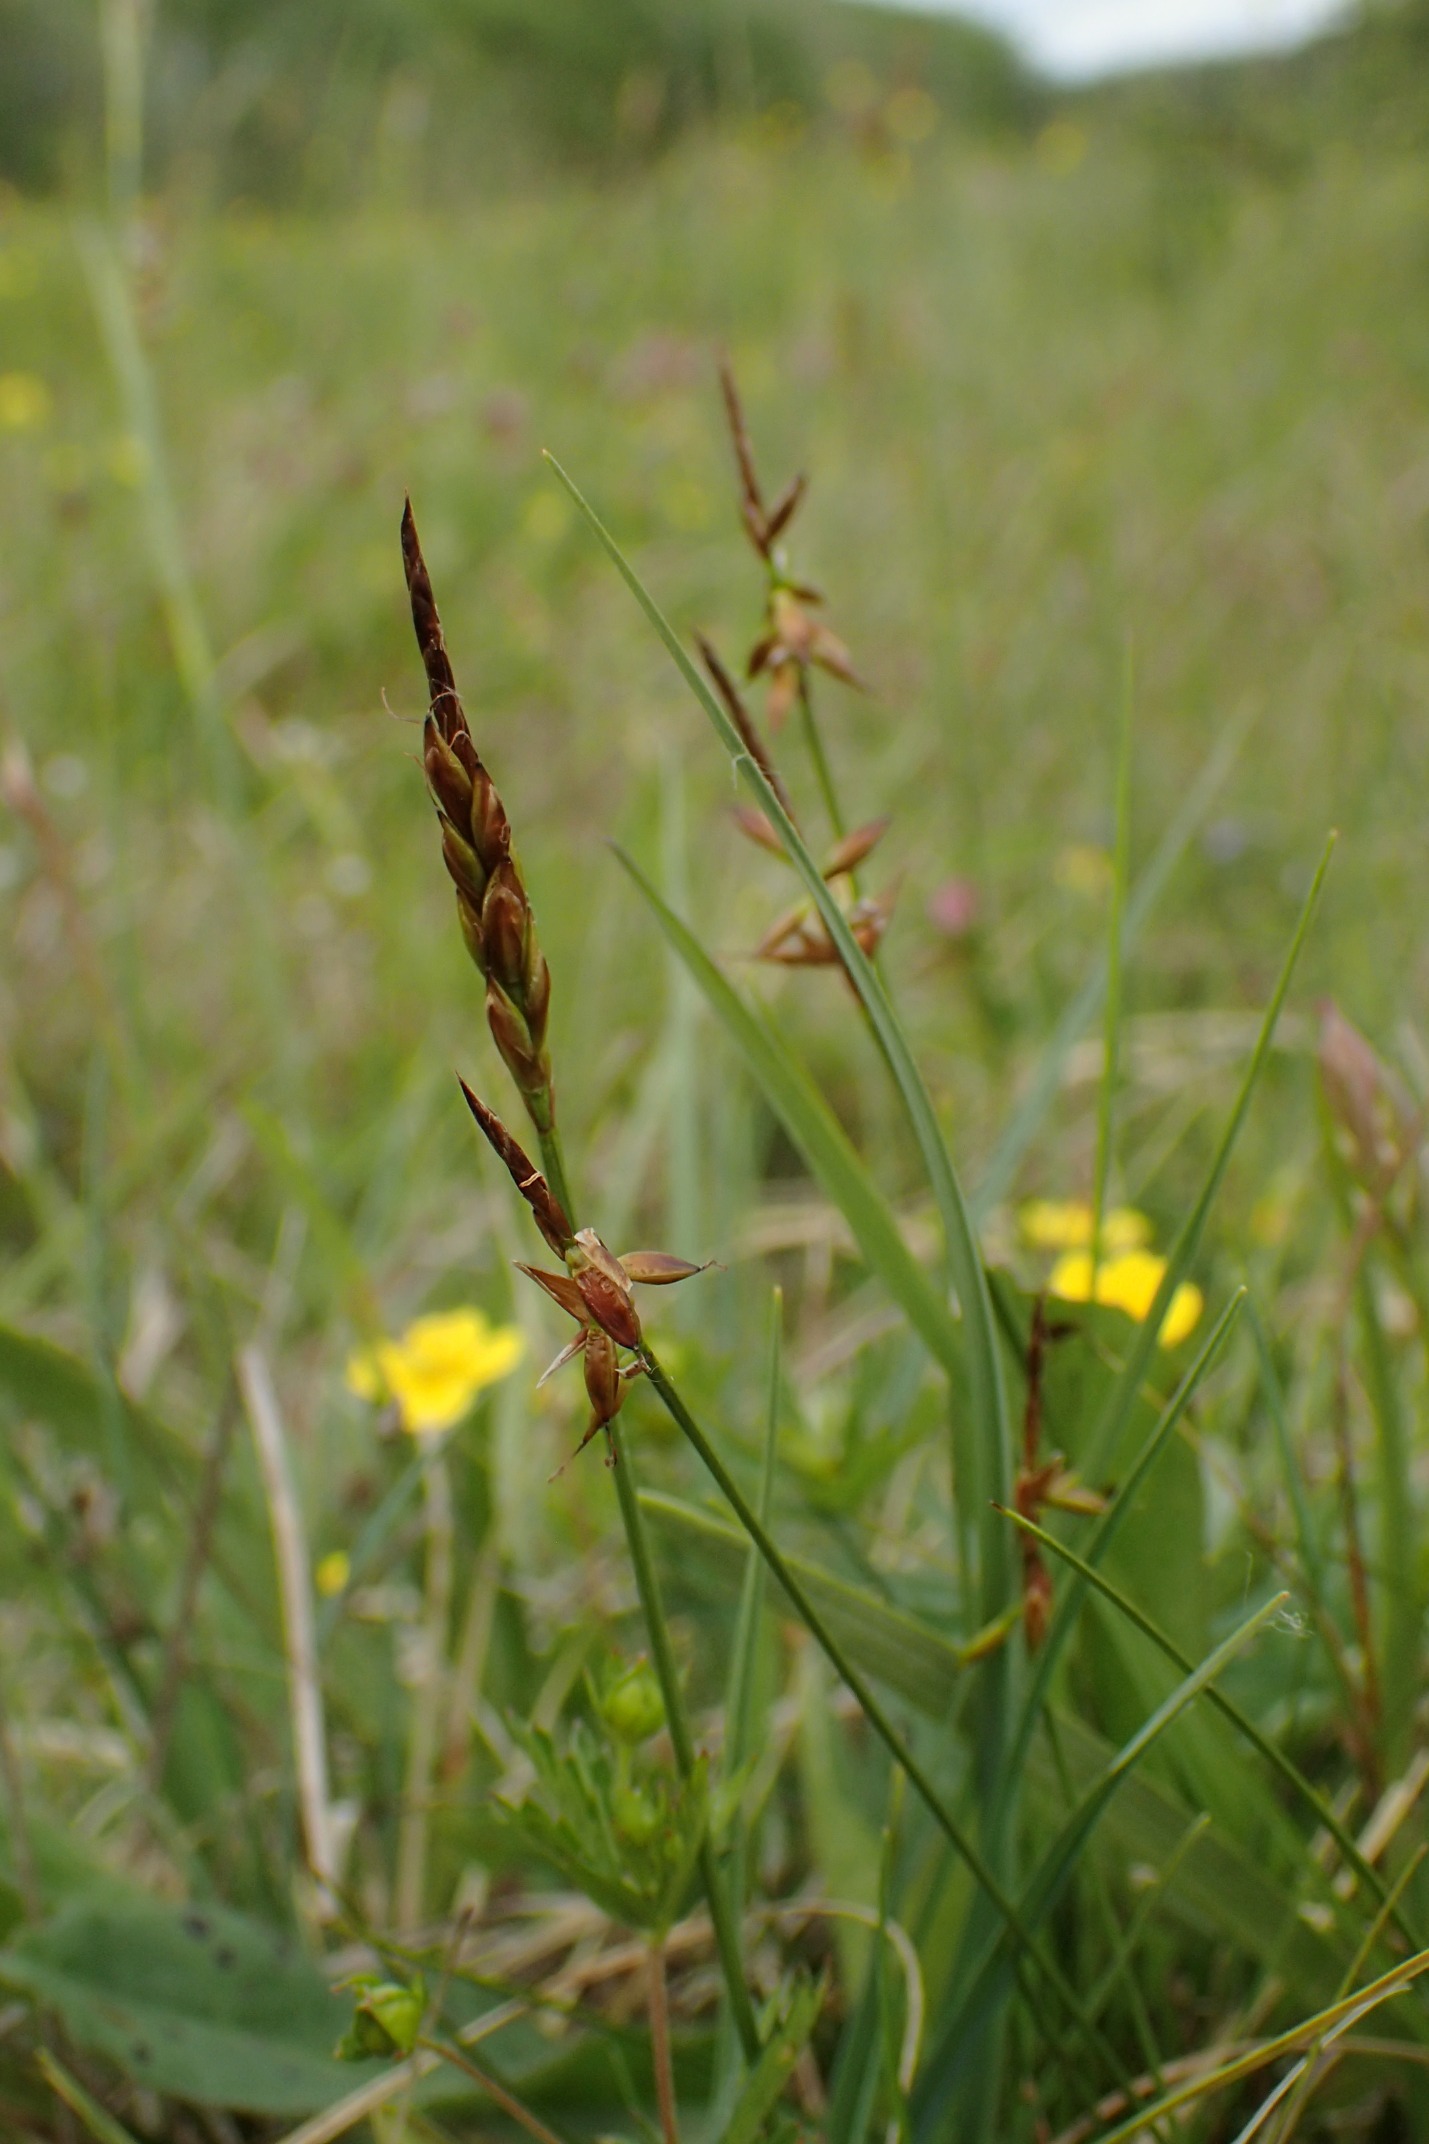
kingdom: Plantae
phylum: Tracheophyta
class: Liliopsida
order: Poales
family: Cyperaceae
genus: Carex
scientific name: Carex pulicaris
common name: Loppe-star
